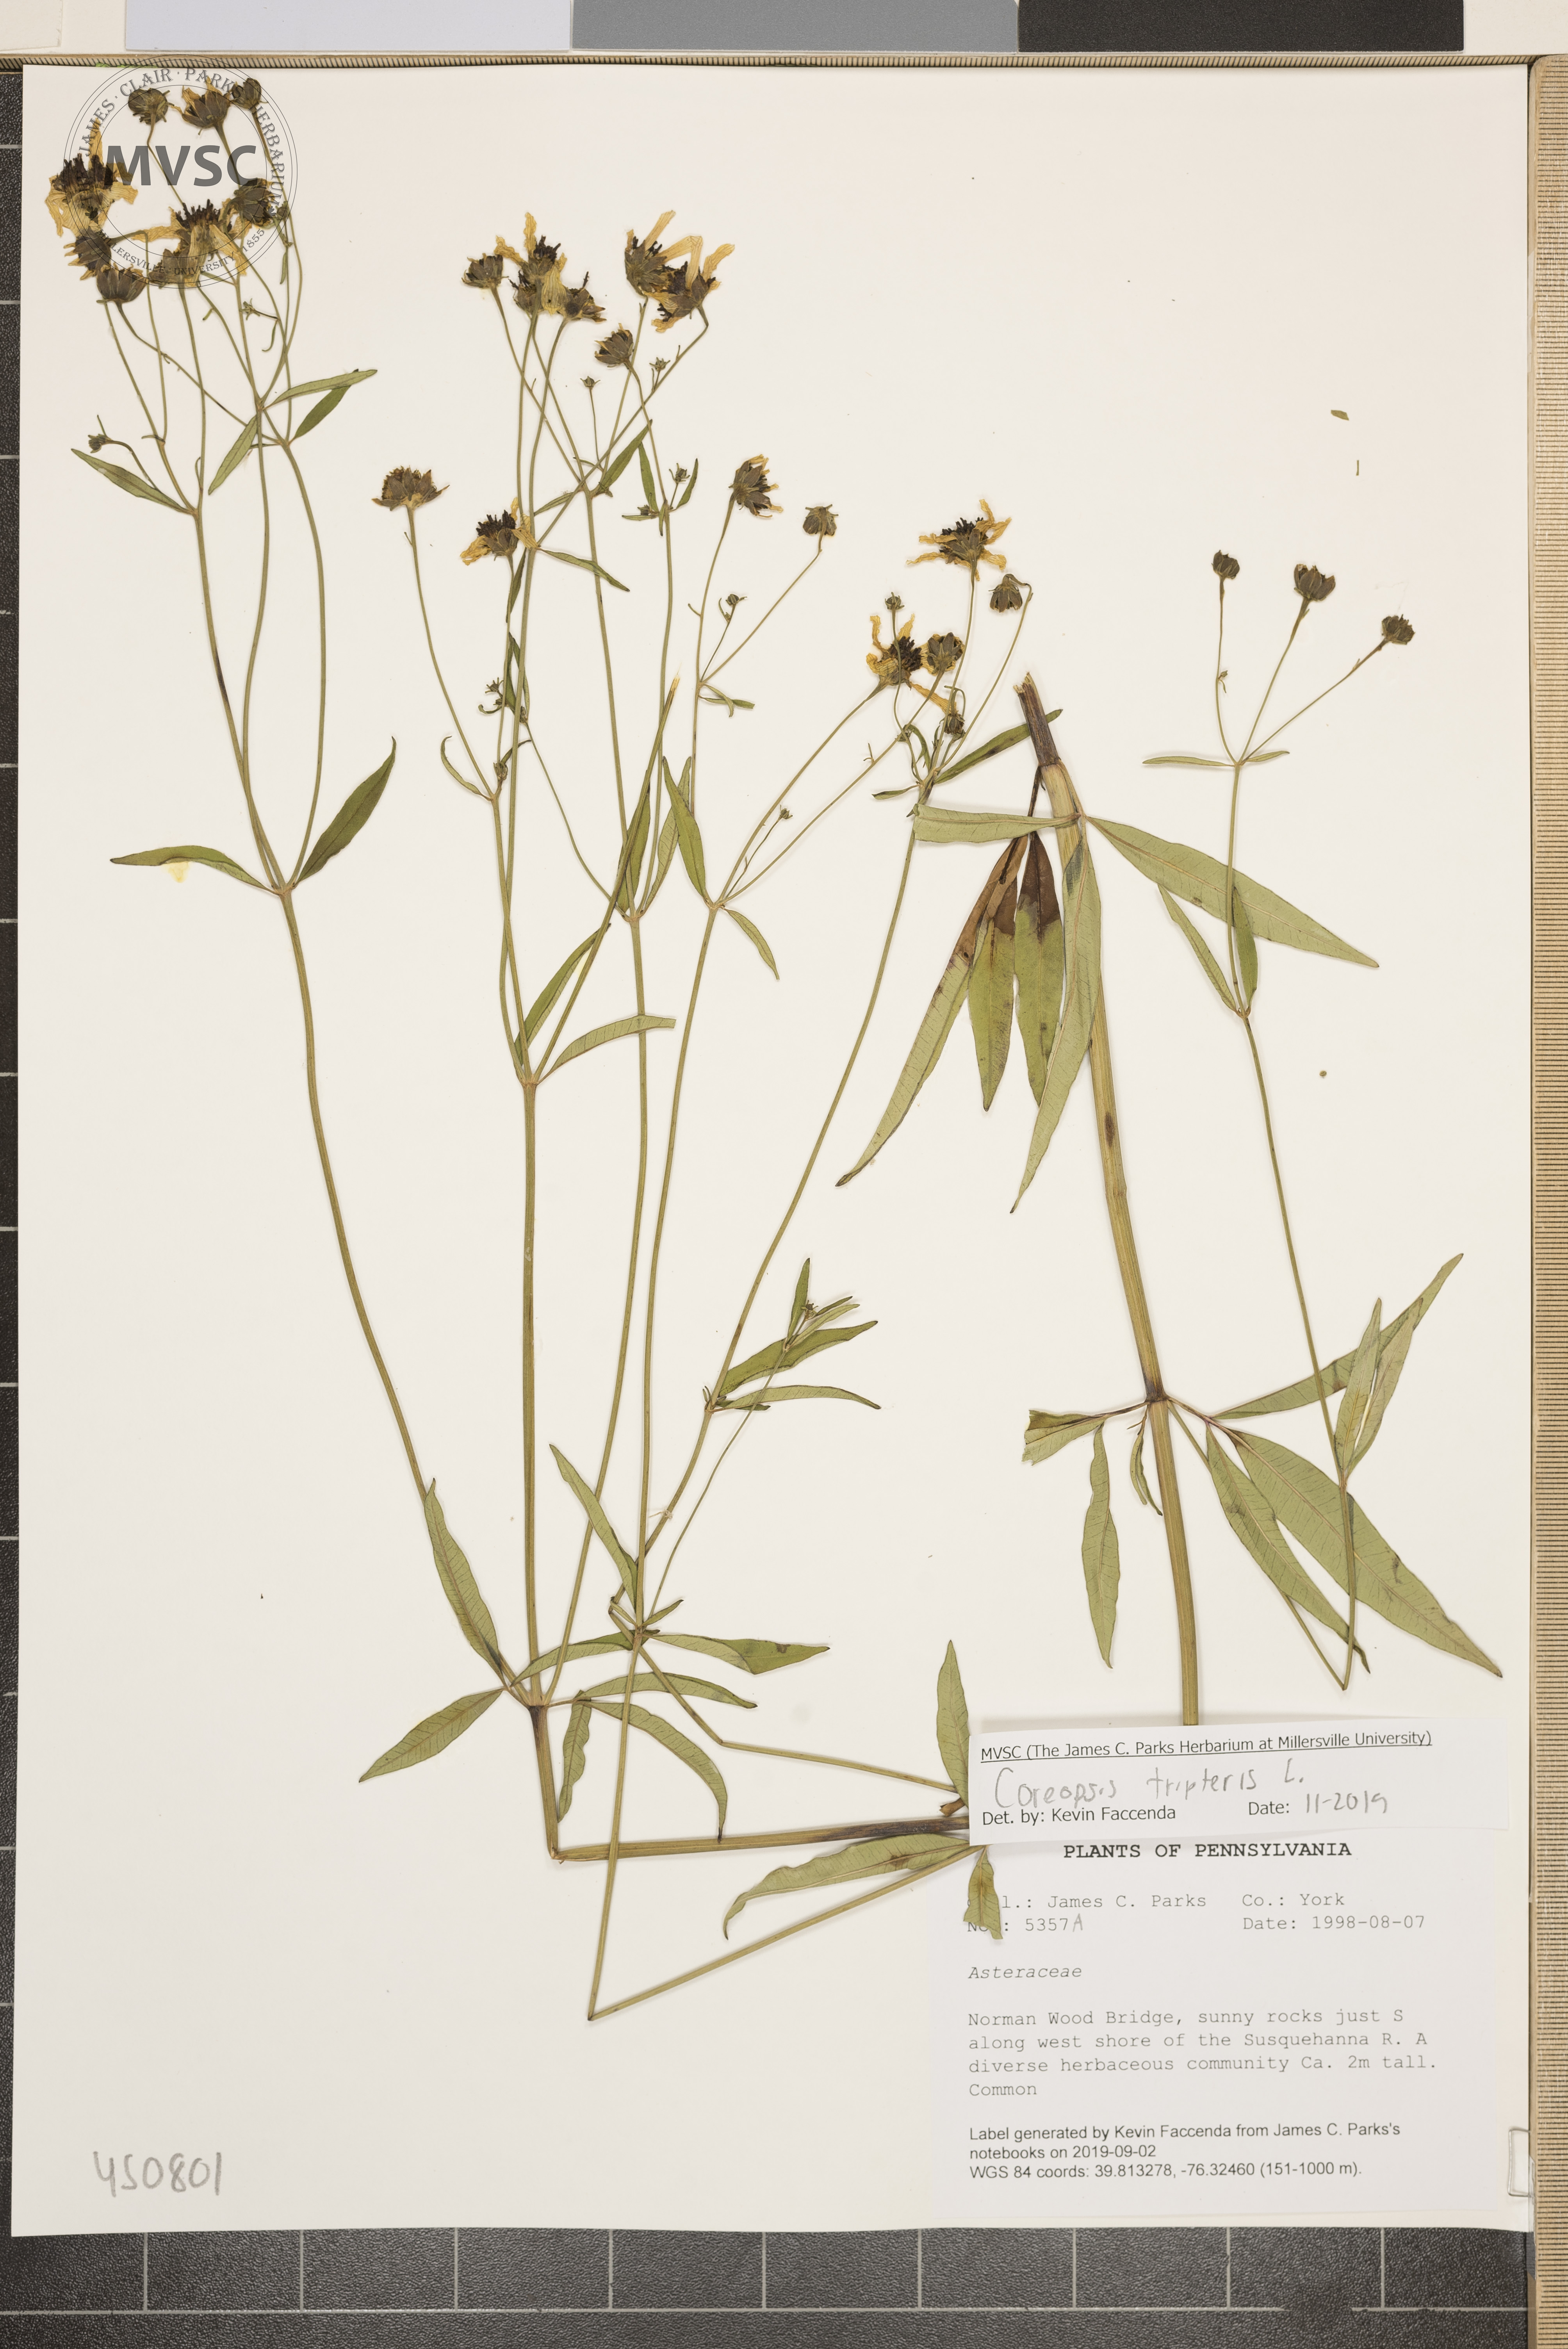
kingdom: Plantae
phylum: Tracheophyta
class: Magnoliopsida
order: Asterales
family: Asteraceae
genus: Coreopsis
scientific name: Coreopsis tripteris
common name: Tall coreopsis
